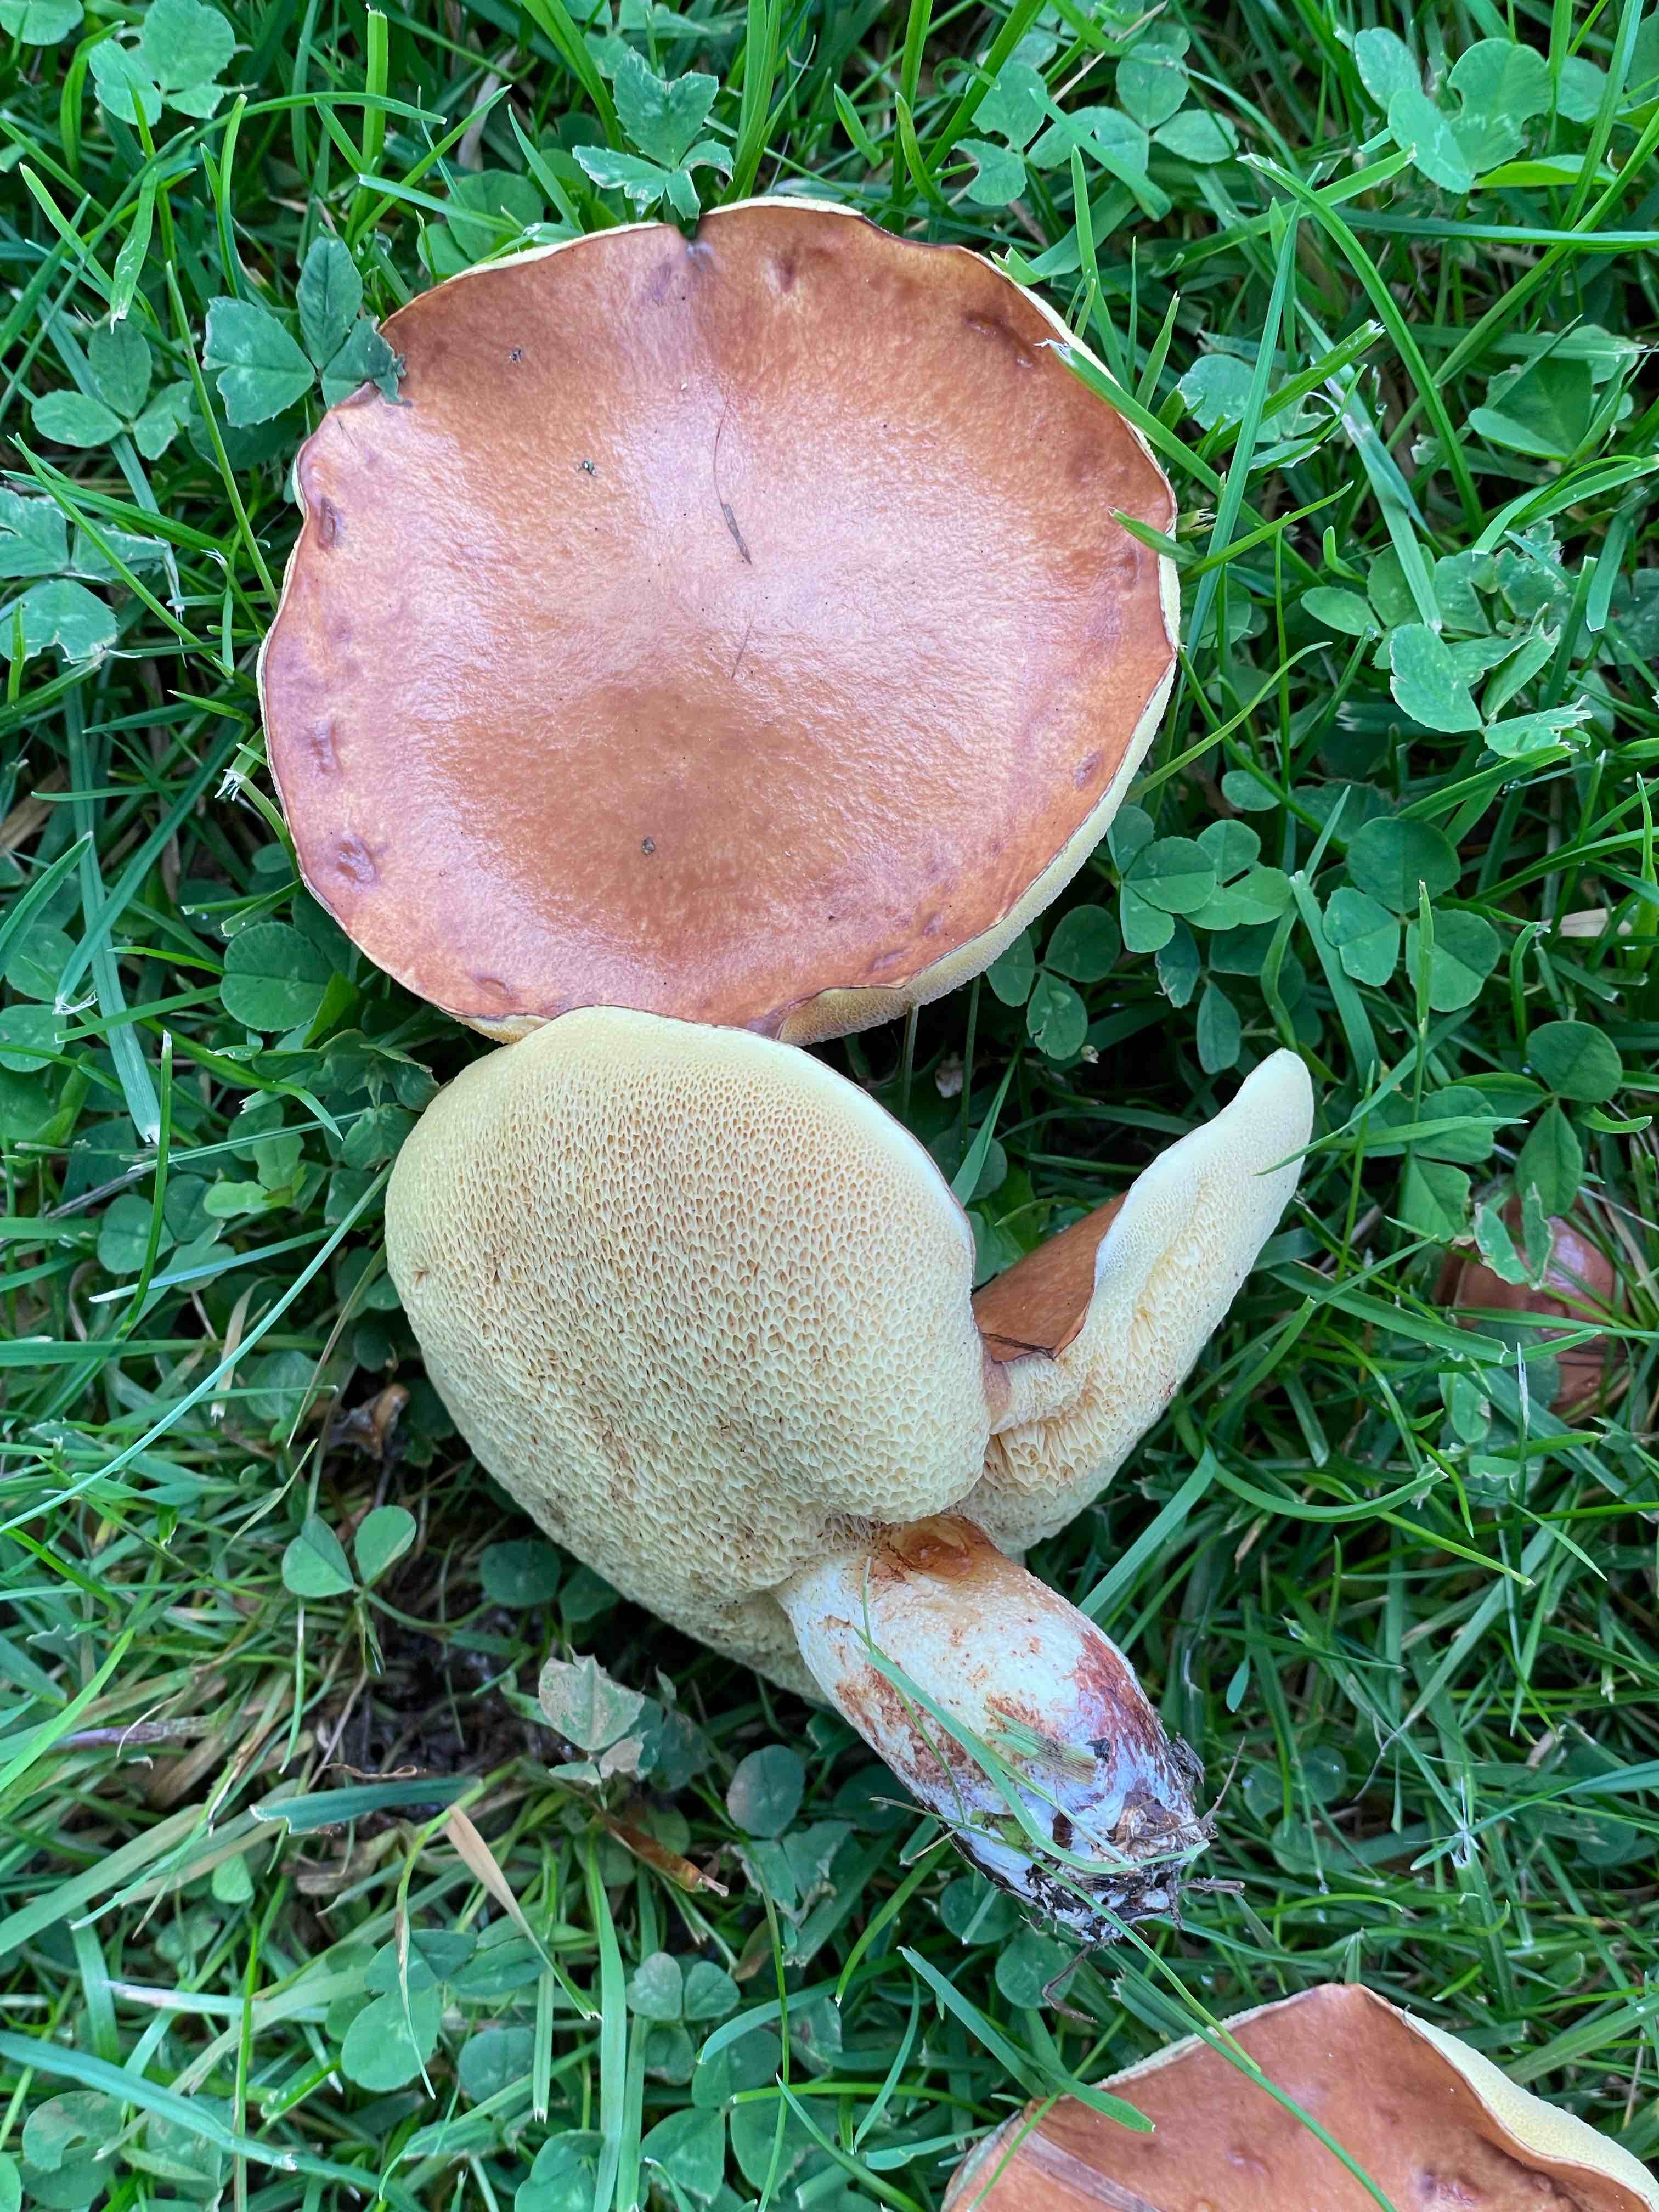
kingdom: Fungi
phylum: Basidiomycota
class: Agaricomycetes
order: Boletales
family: Suillaceae
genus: Suillus
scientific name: Suillus granulatus
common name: kornet slimrørhat
